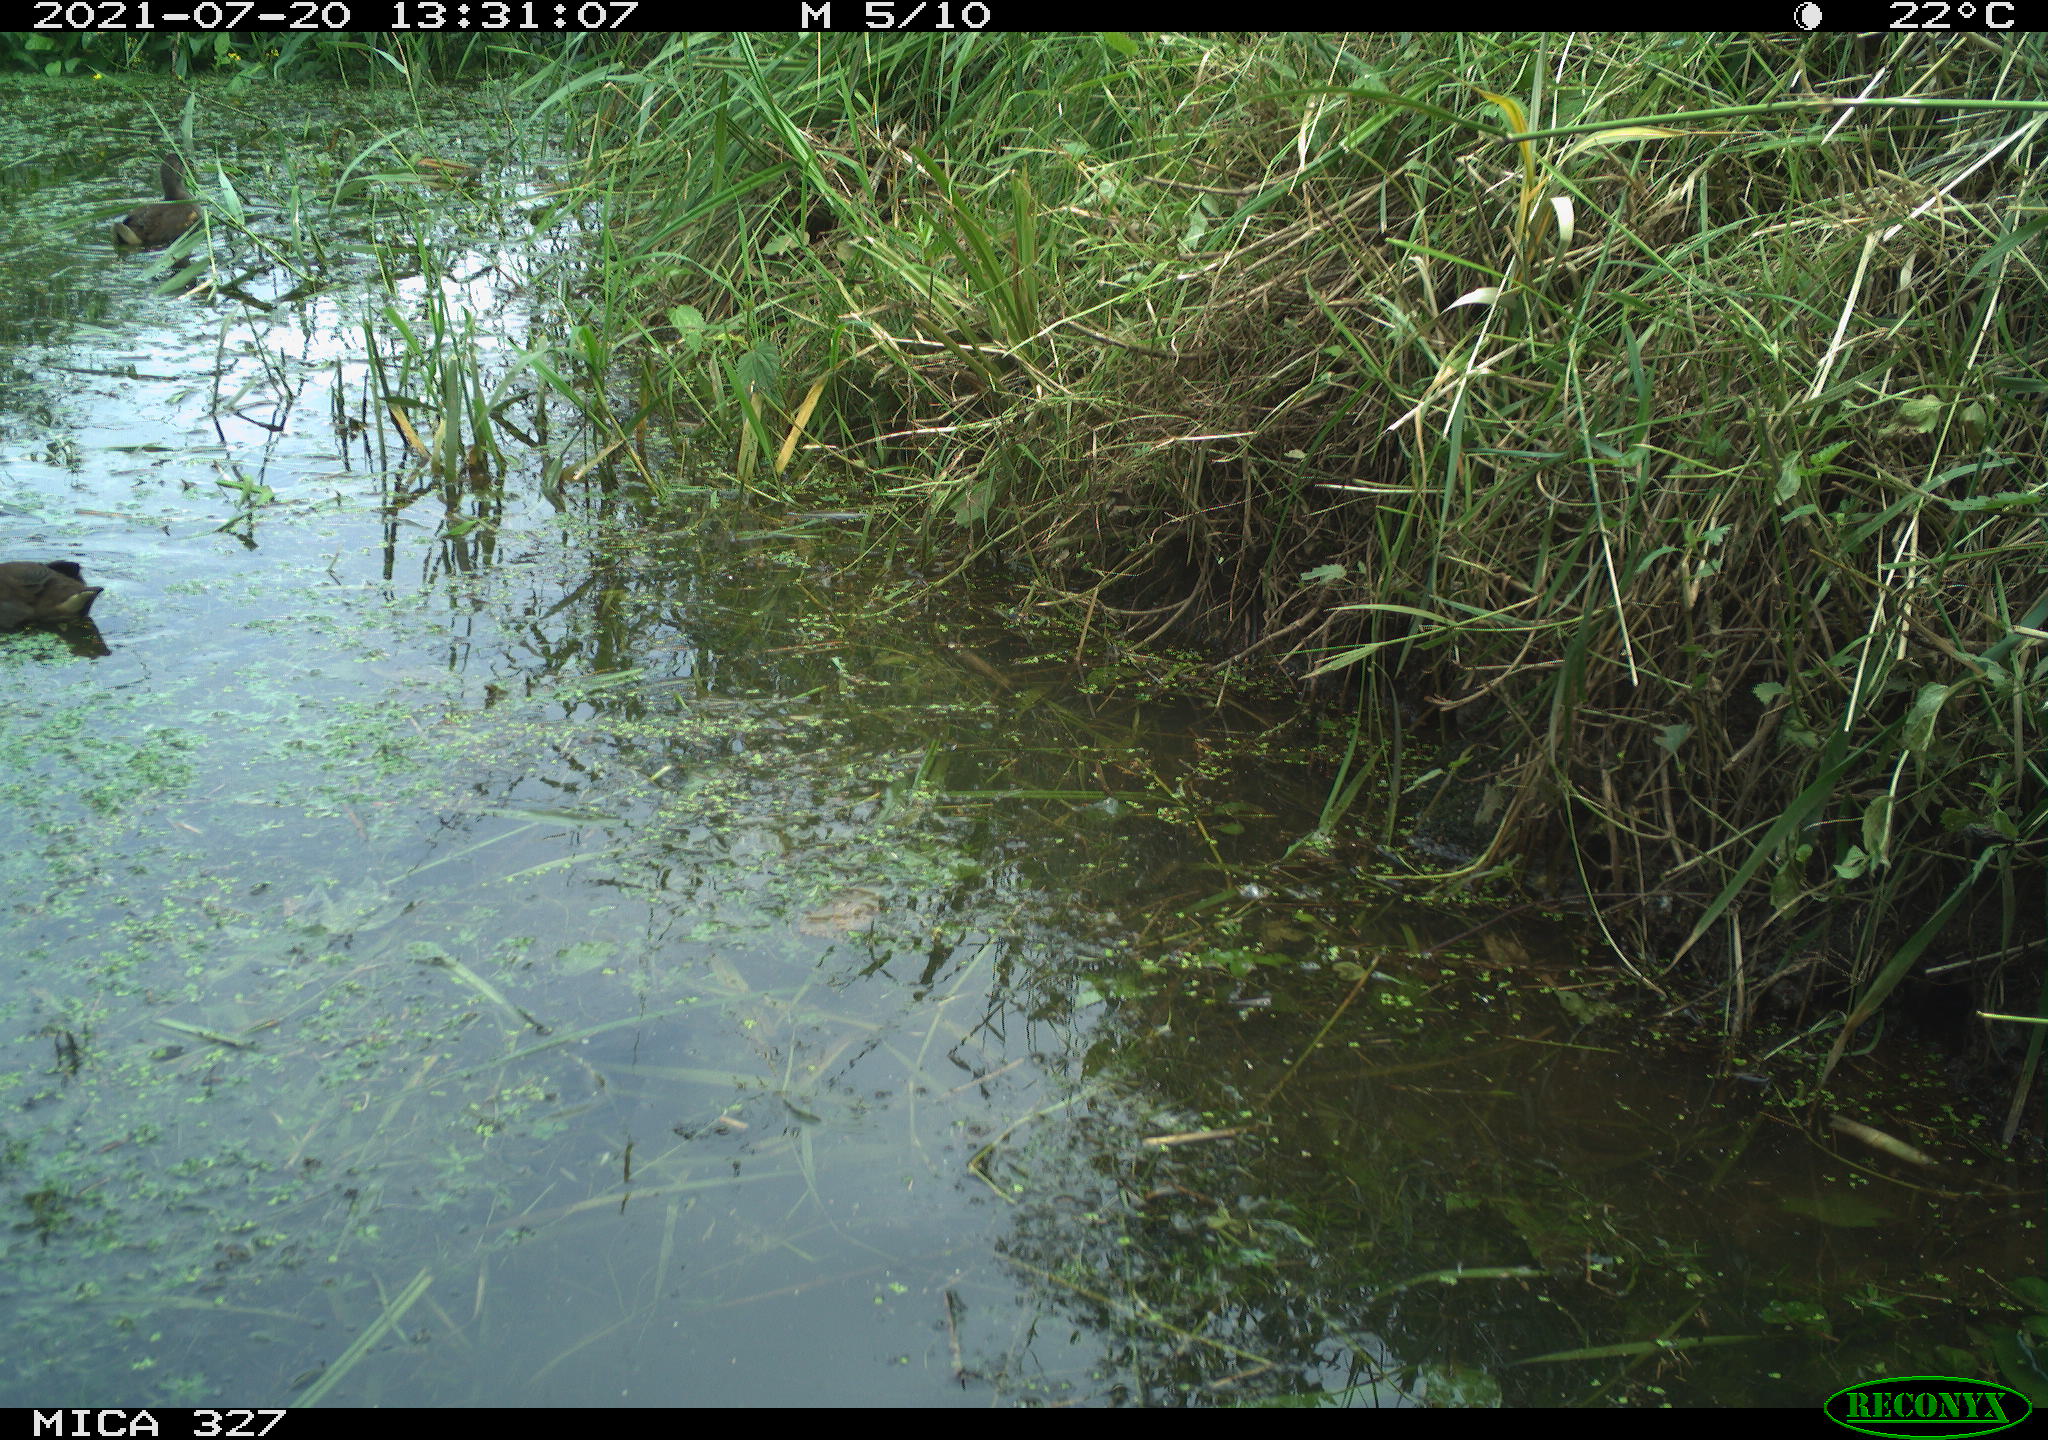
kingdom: Animalia
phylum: Chordata
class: Aves
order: Gruiformes
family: Rallidae
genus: Gallinula
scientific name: Gallinula chloropus
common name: Common moorhen
